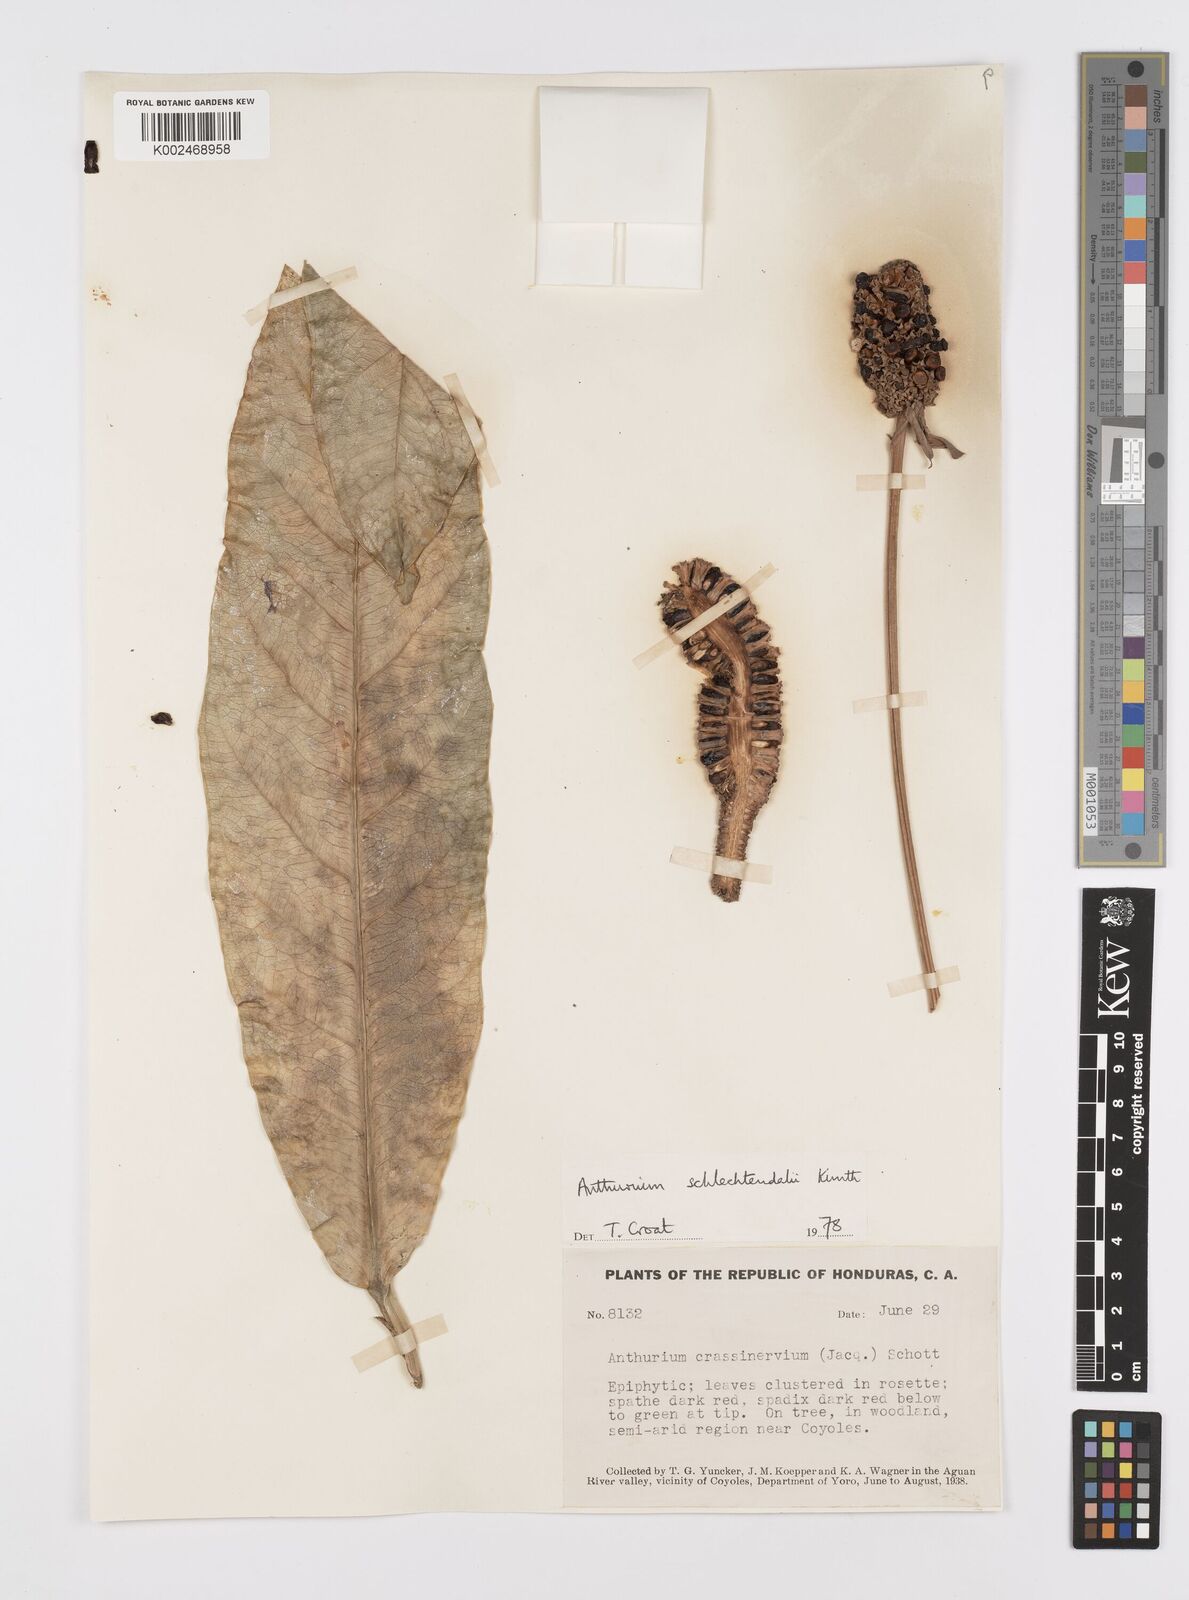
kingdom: Plantae
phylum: Tracheophyta
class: Liliopsida
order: Alismatales
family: Araceae
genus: Anthurium
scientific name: Anthurium schlechtendalii
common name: Laceleaf
